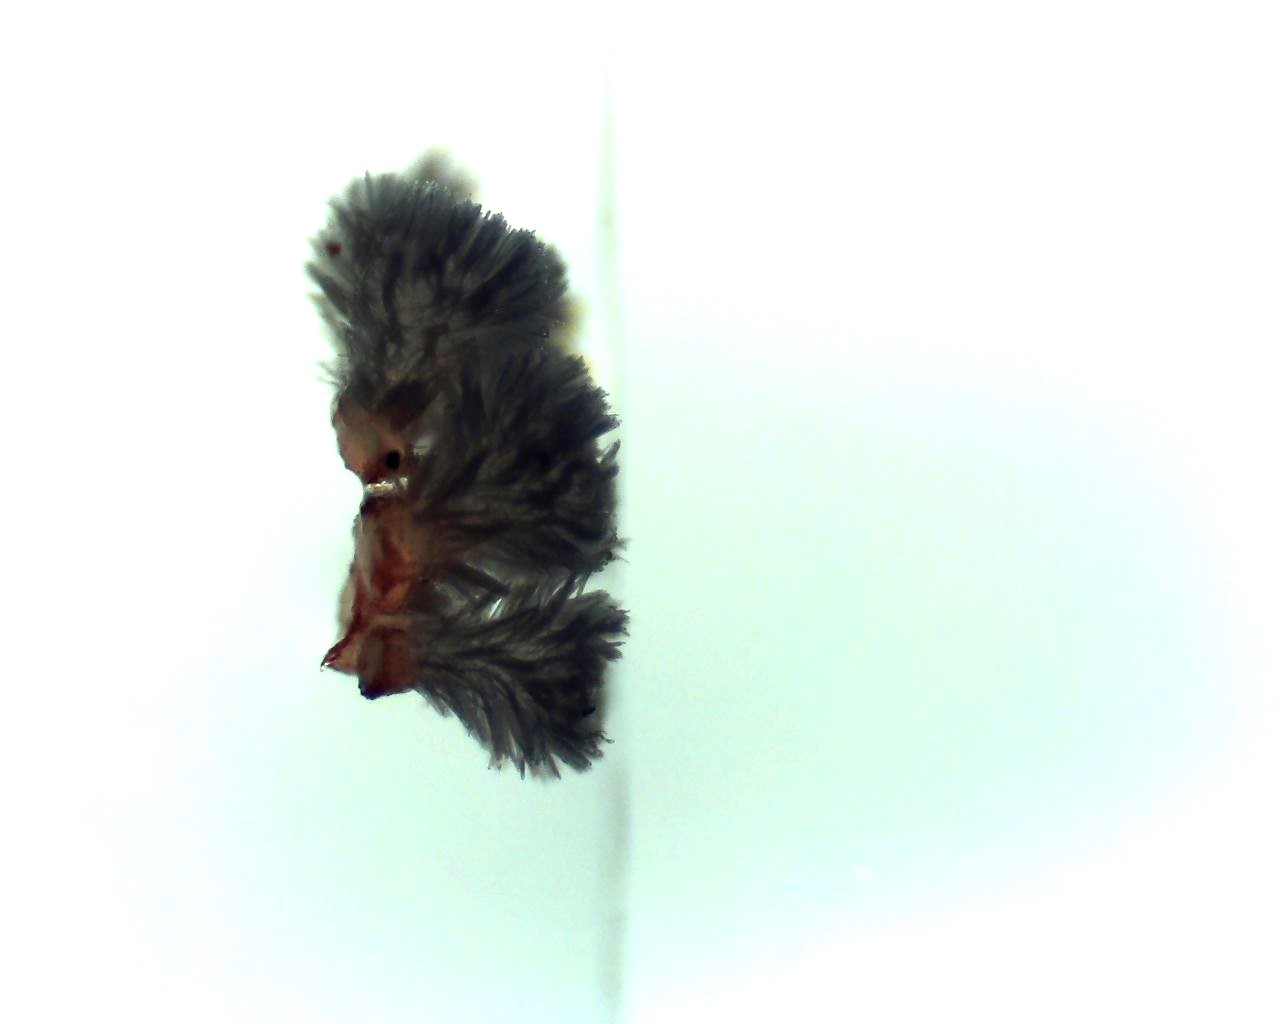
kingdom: Fungi
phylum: Ascomycota
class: Leotiomycetes
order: Helotiales
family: Lachnaceae
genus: Lachnum
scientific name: Lachnum
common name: frynseskive
